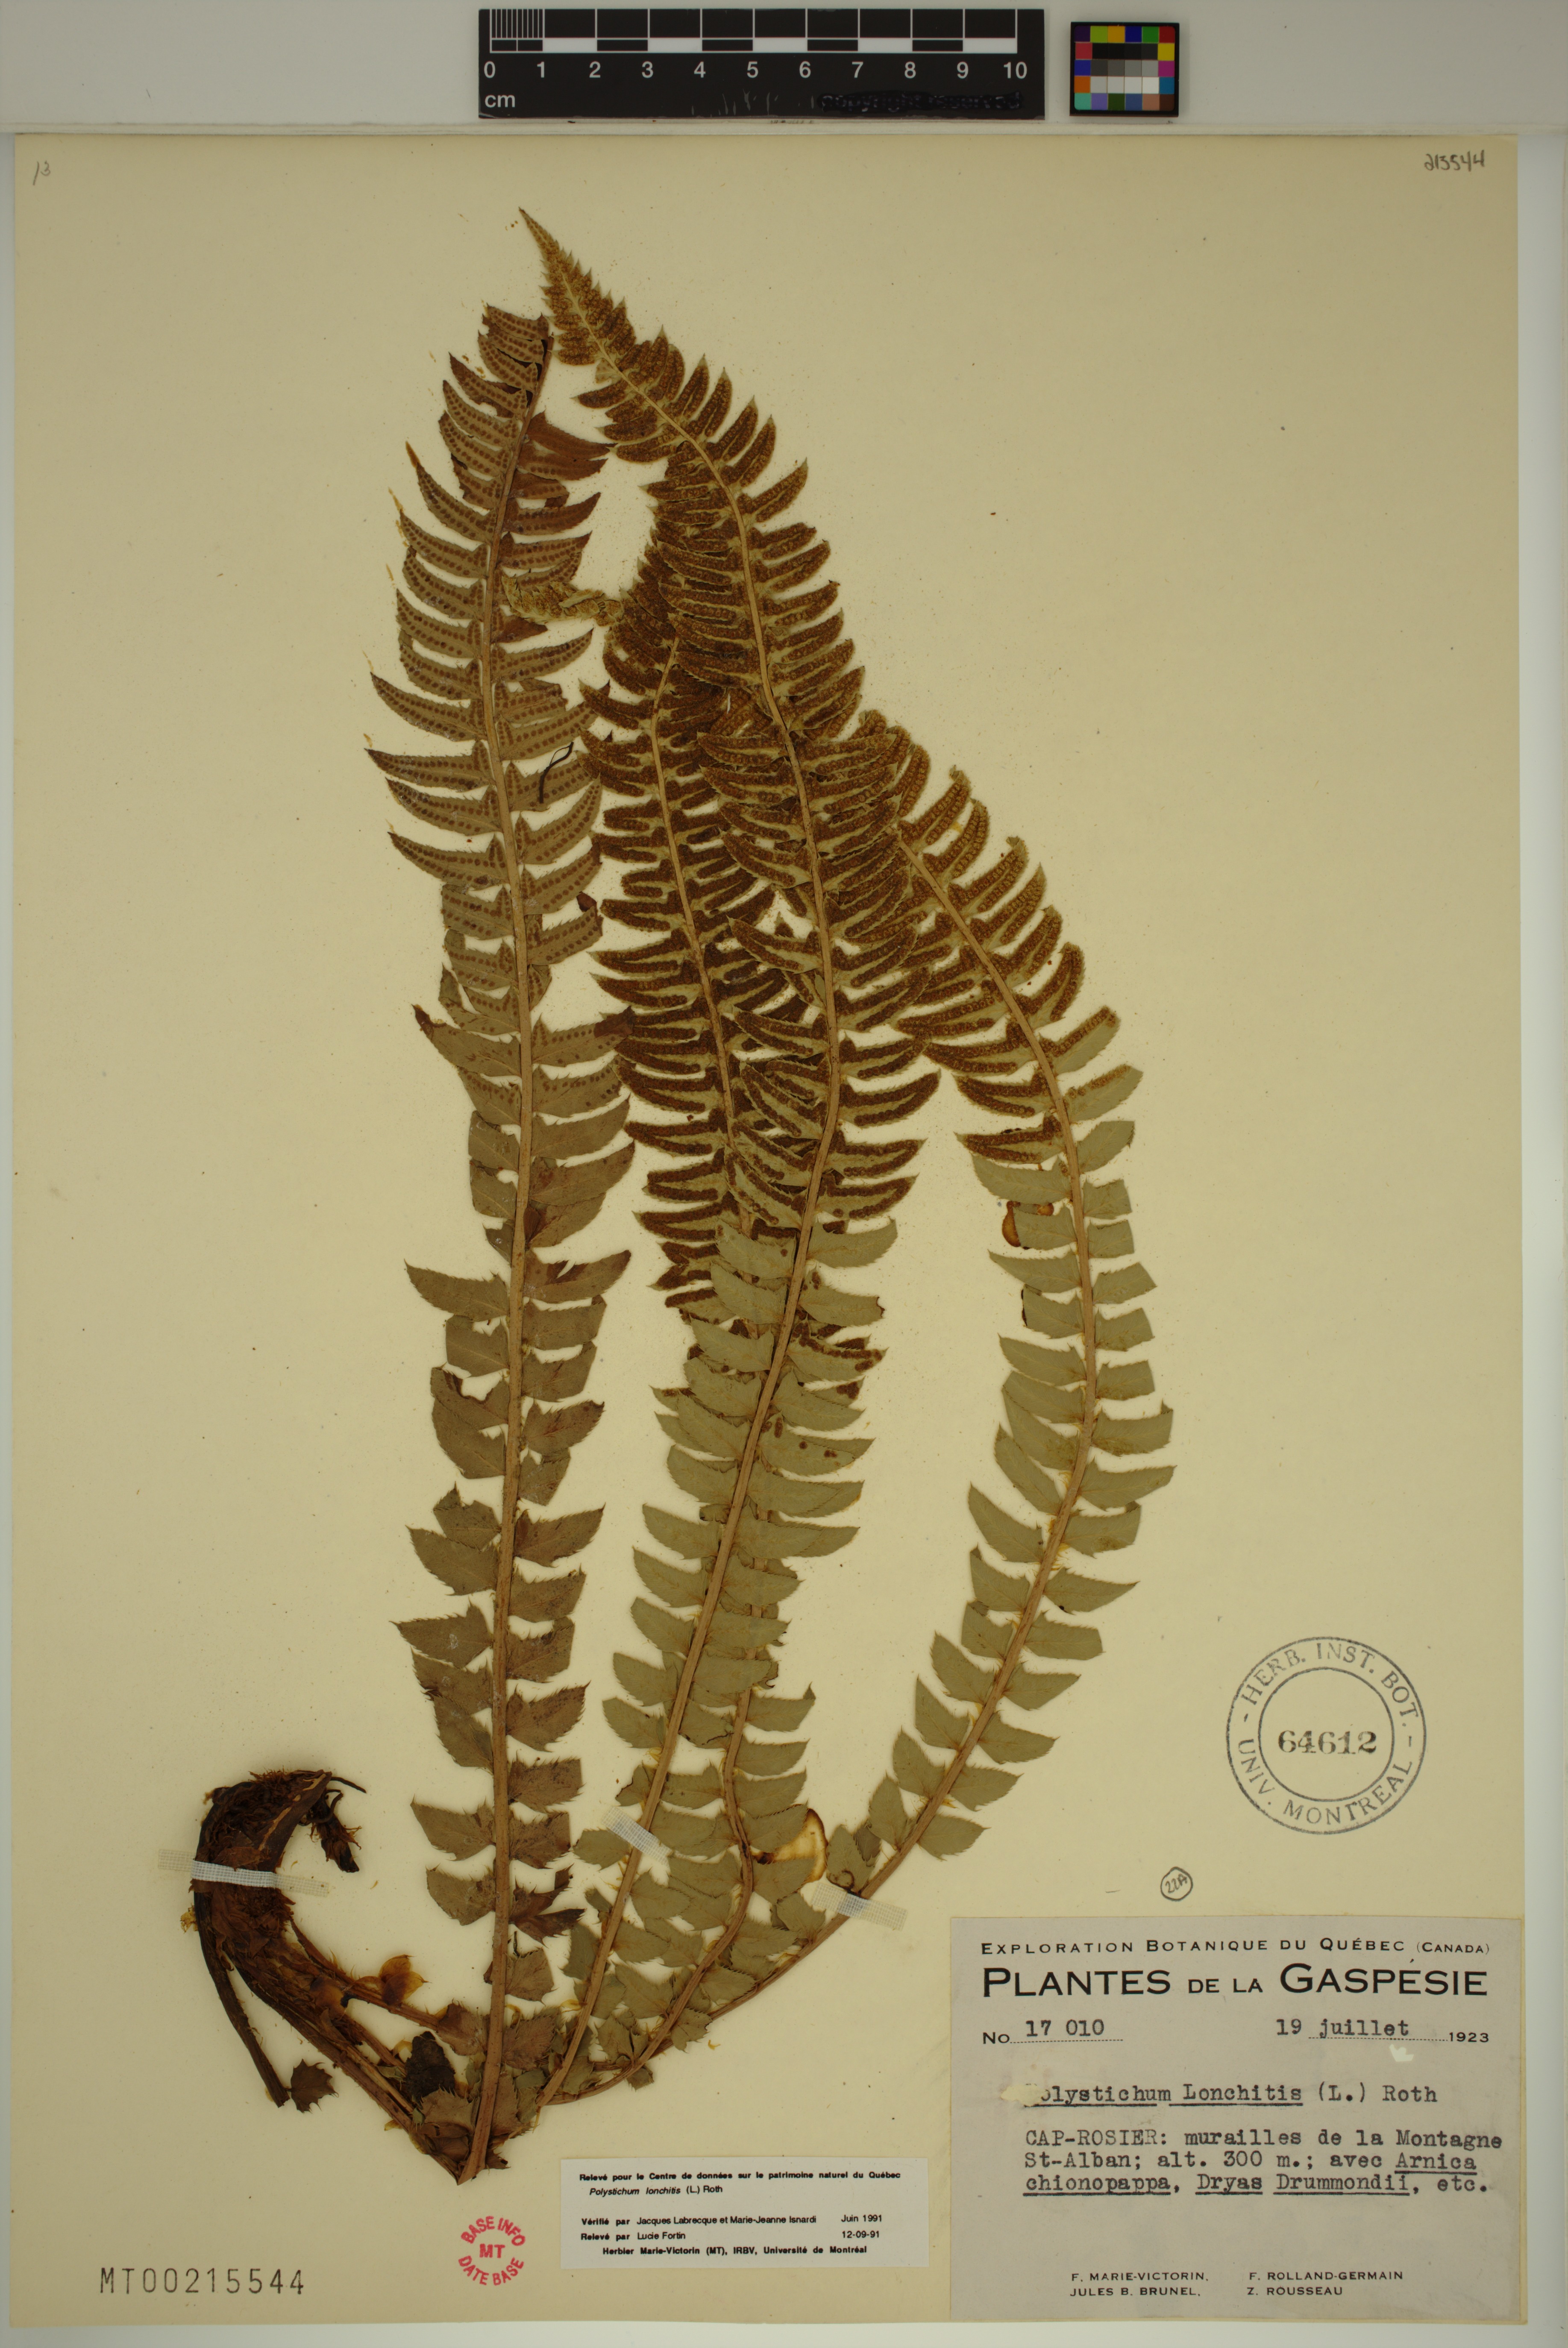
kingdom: Plantae
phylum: Tracheophyta
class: Polypodiopsida
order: Polypodiales
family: Dryopteridaceae
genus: Polystichum
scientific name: Polystichum lonchitis
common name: Holly fern
